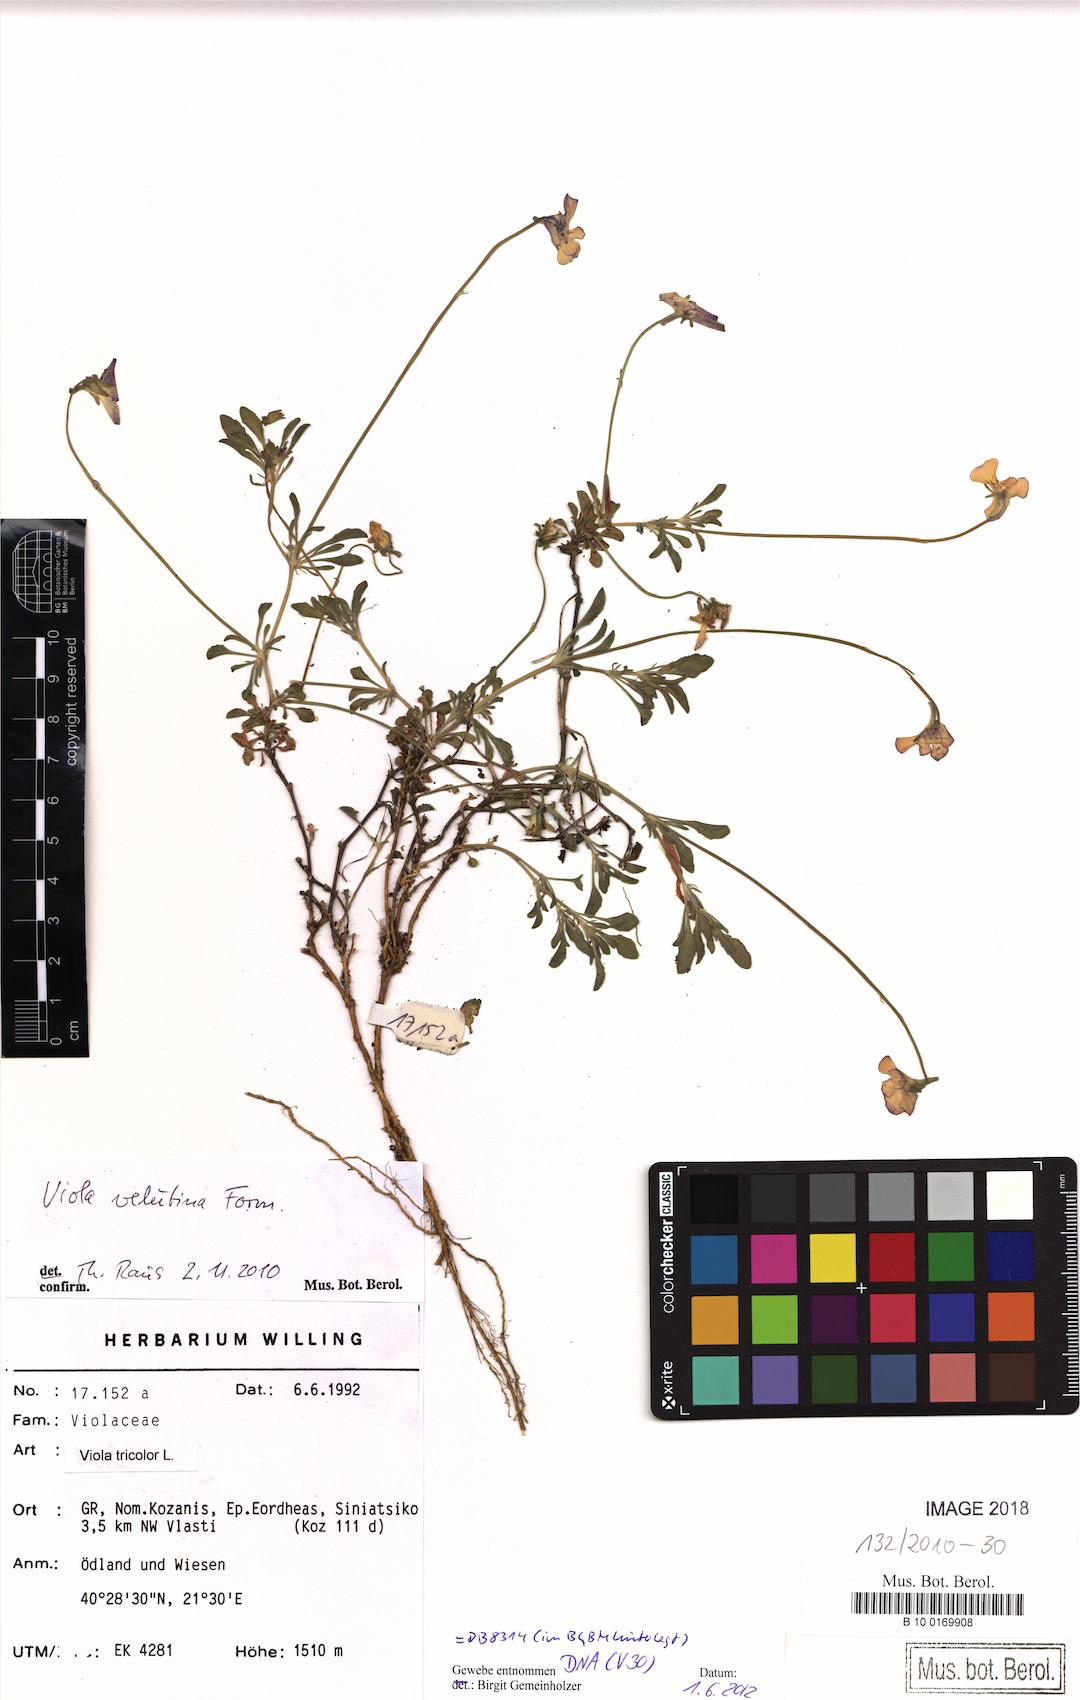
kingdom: Plantae
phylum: Tracheophyta
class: Magnoliopsida
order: Malpighiales
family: Violaceae
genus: Viola
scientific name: Viola velutina
